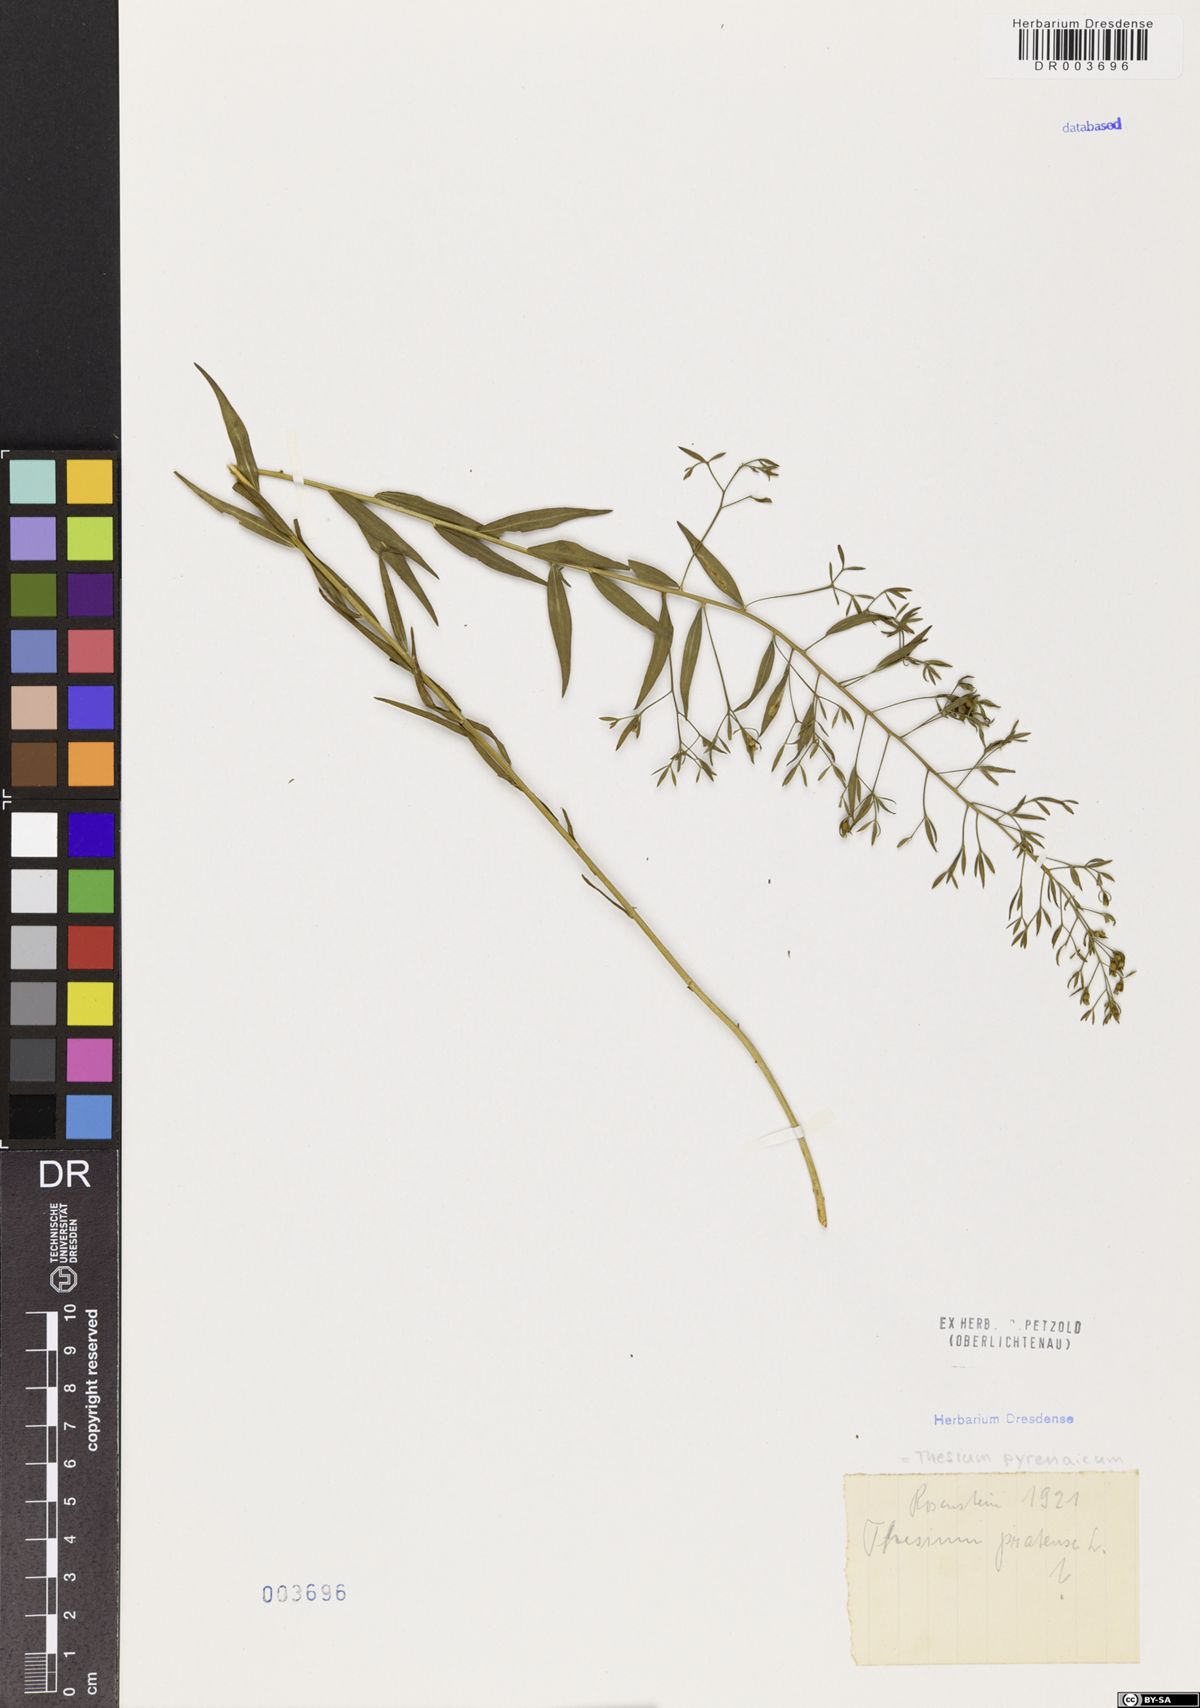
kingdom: Plantae
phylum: Tracheophyta
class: Magnoliopsida
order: Santalales
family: Thesiaceae
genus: Thesium
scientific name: Thesium pyrenaicum
